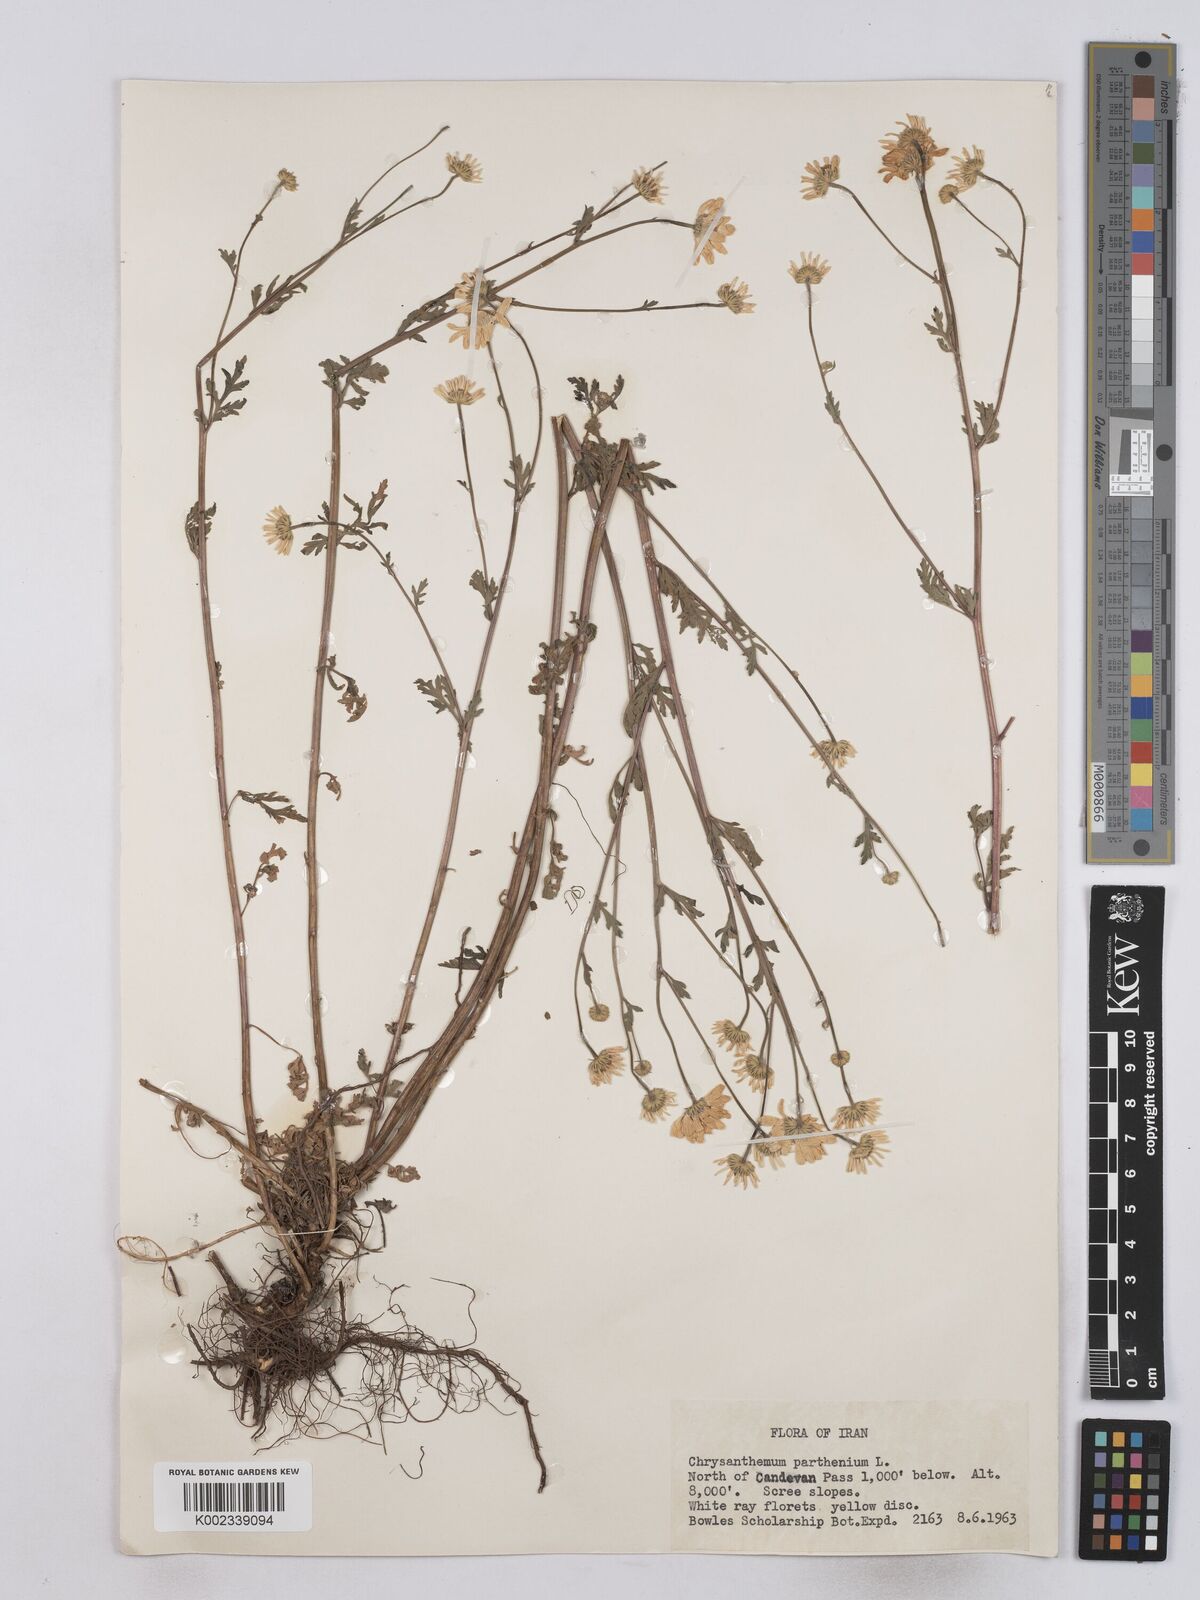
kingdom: Plantae
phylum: Tracheophyta
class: Magnoliopsida
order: Asterales
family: Asteraceae
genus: Tanacetum
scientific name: Tanacetum parthenium
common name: Feverfew
